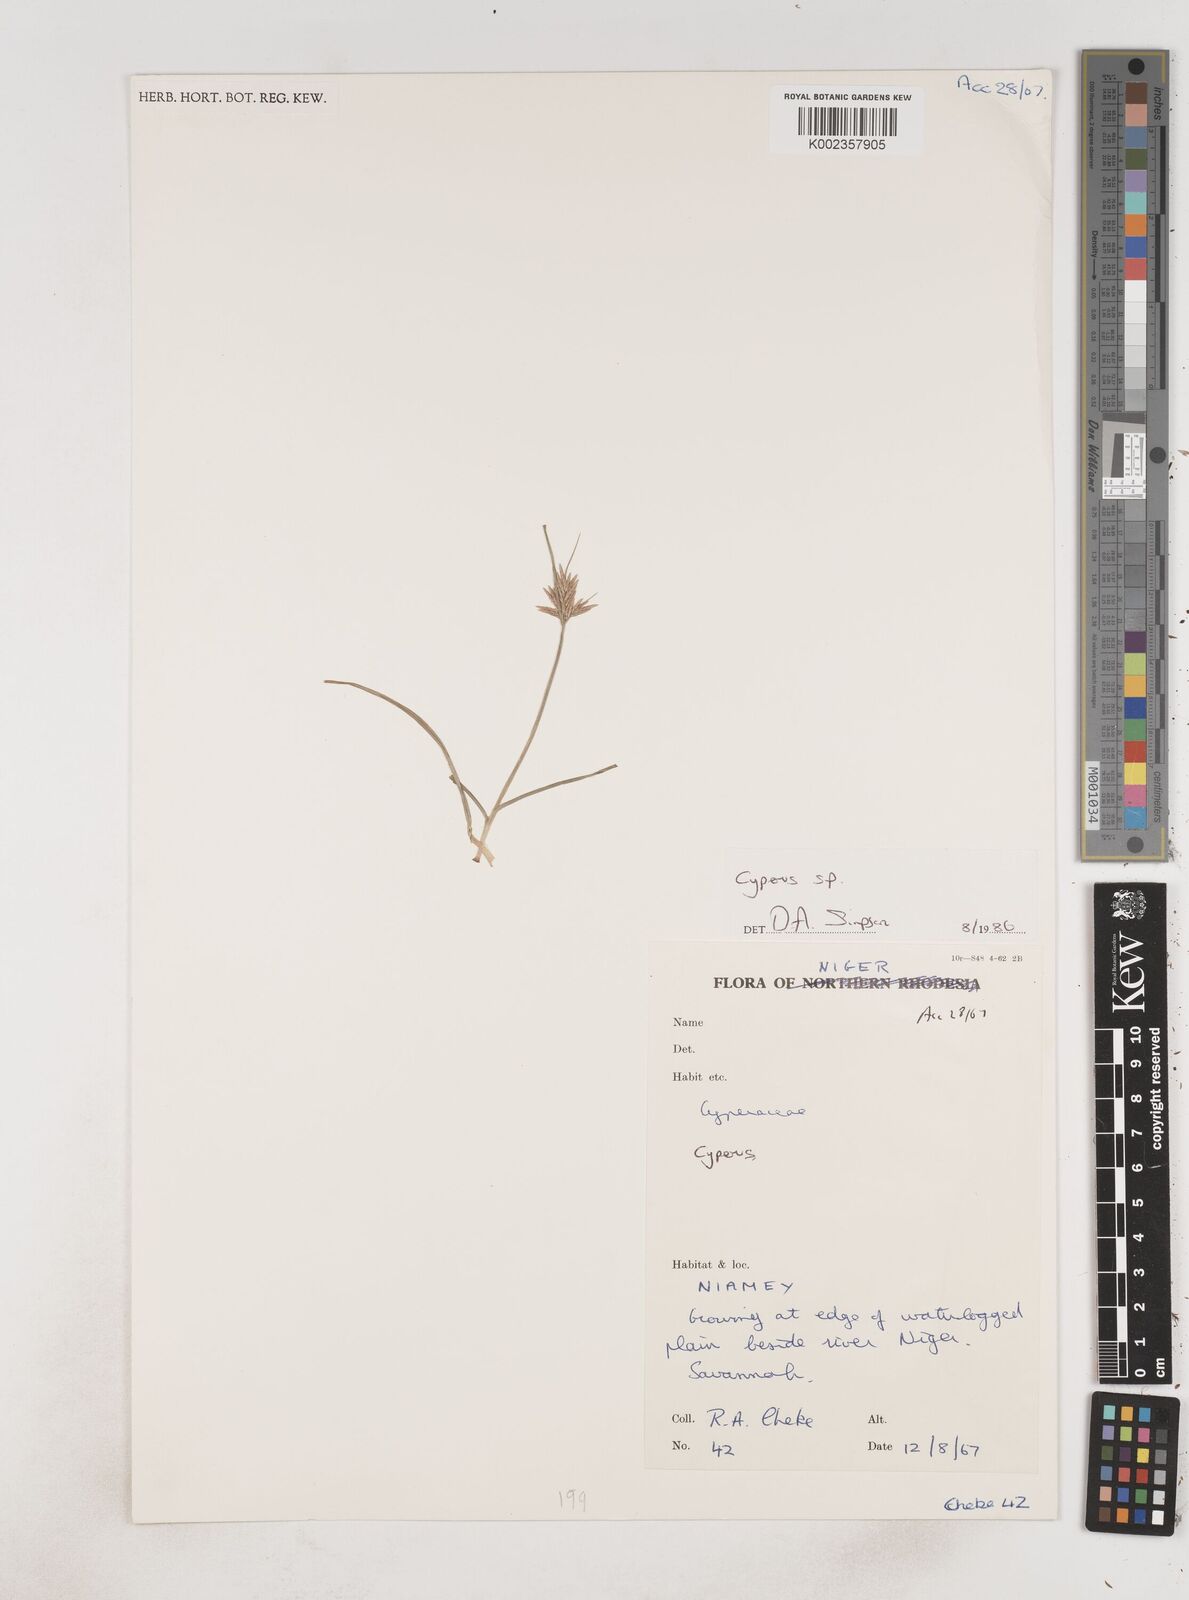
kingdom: Plantae
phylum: Tracheophyta
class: Liliopsida
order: Poales
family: Cyperaceae
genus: Cyperus
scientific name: Cyperus
